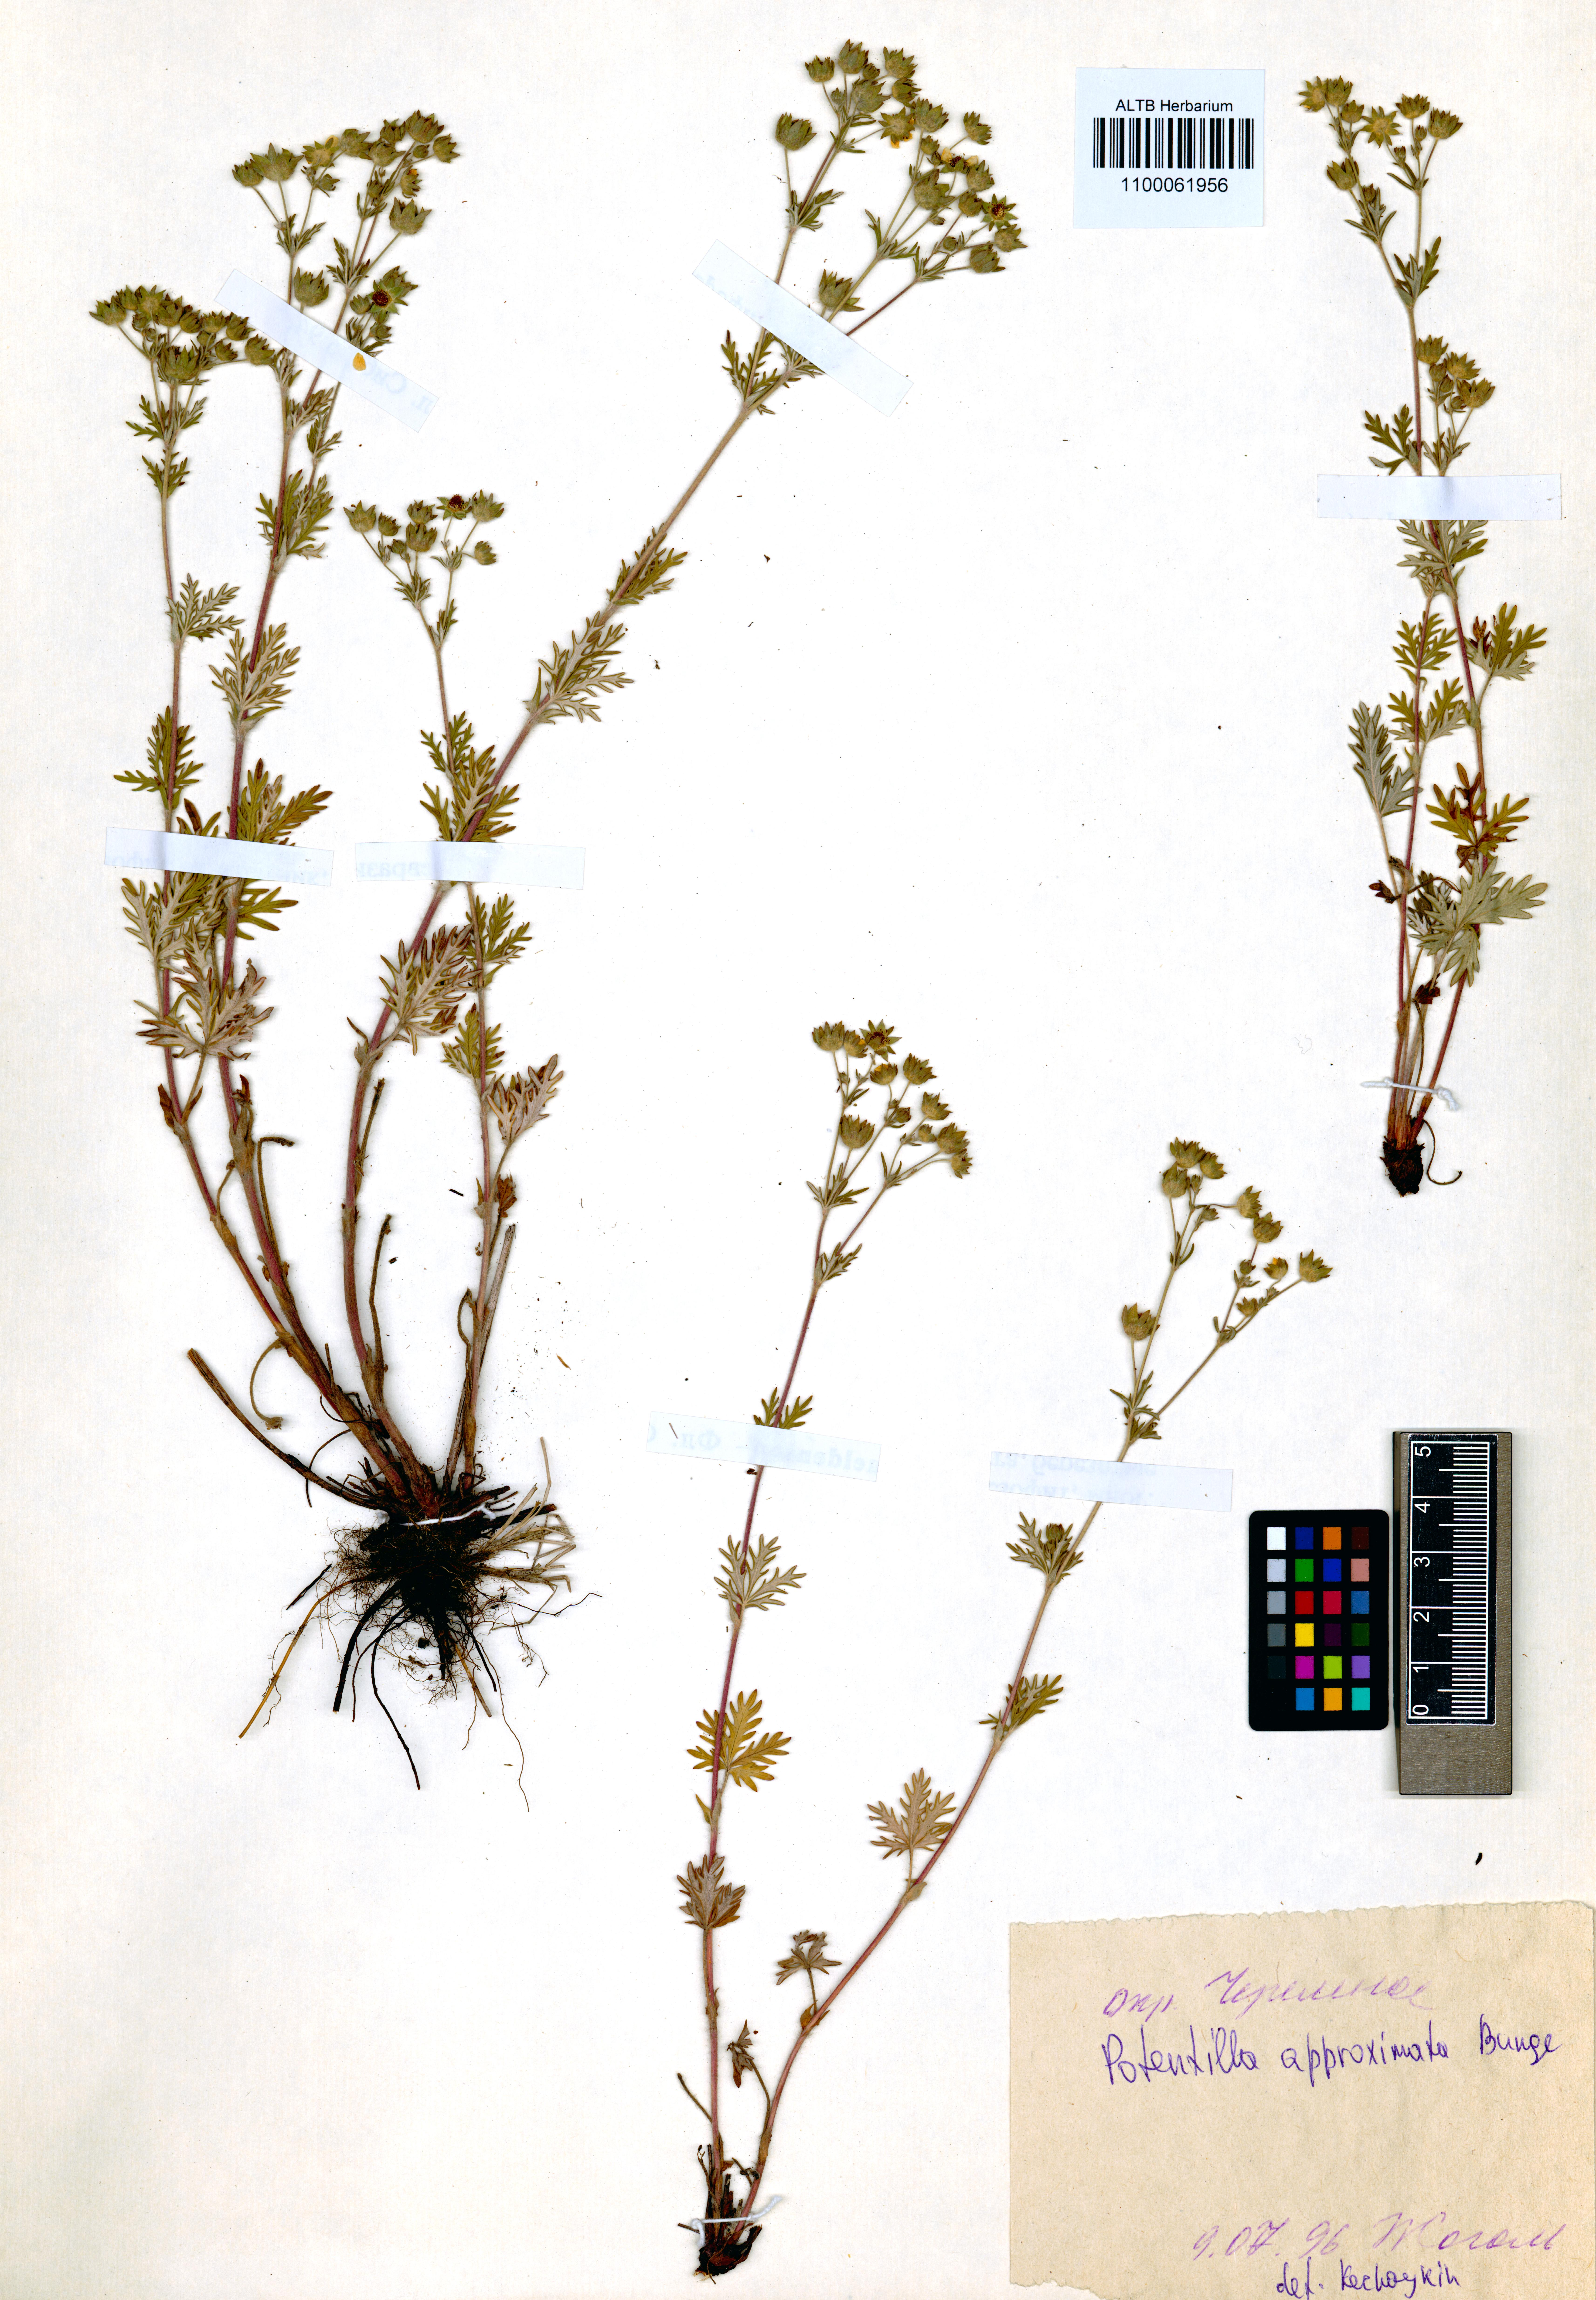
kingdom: Plantae
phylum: Tracheophyta
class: Magnoliopsida
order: Rosales
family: Rosaceae
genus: Potentilla
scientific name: Potentilla conferta
